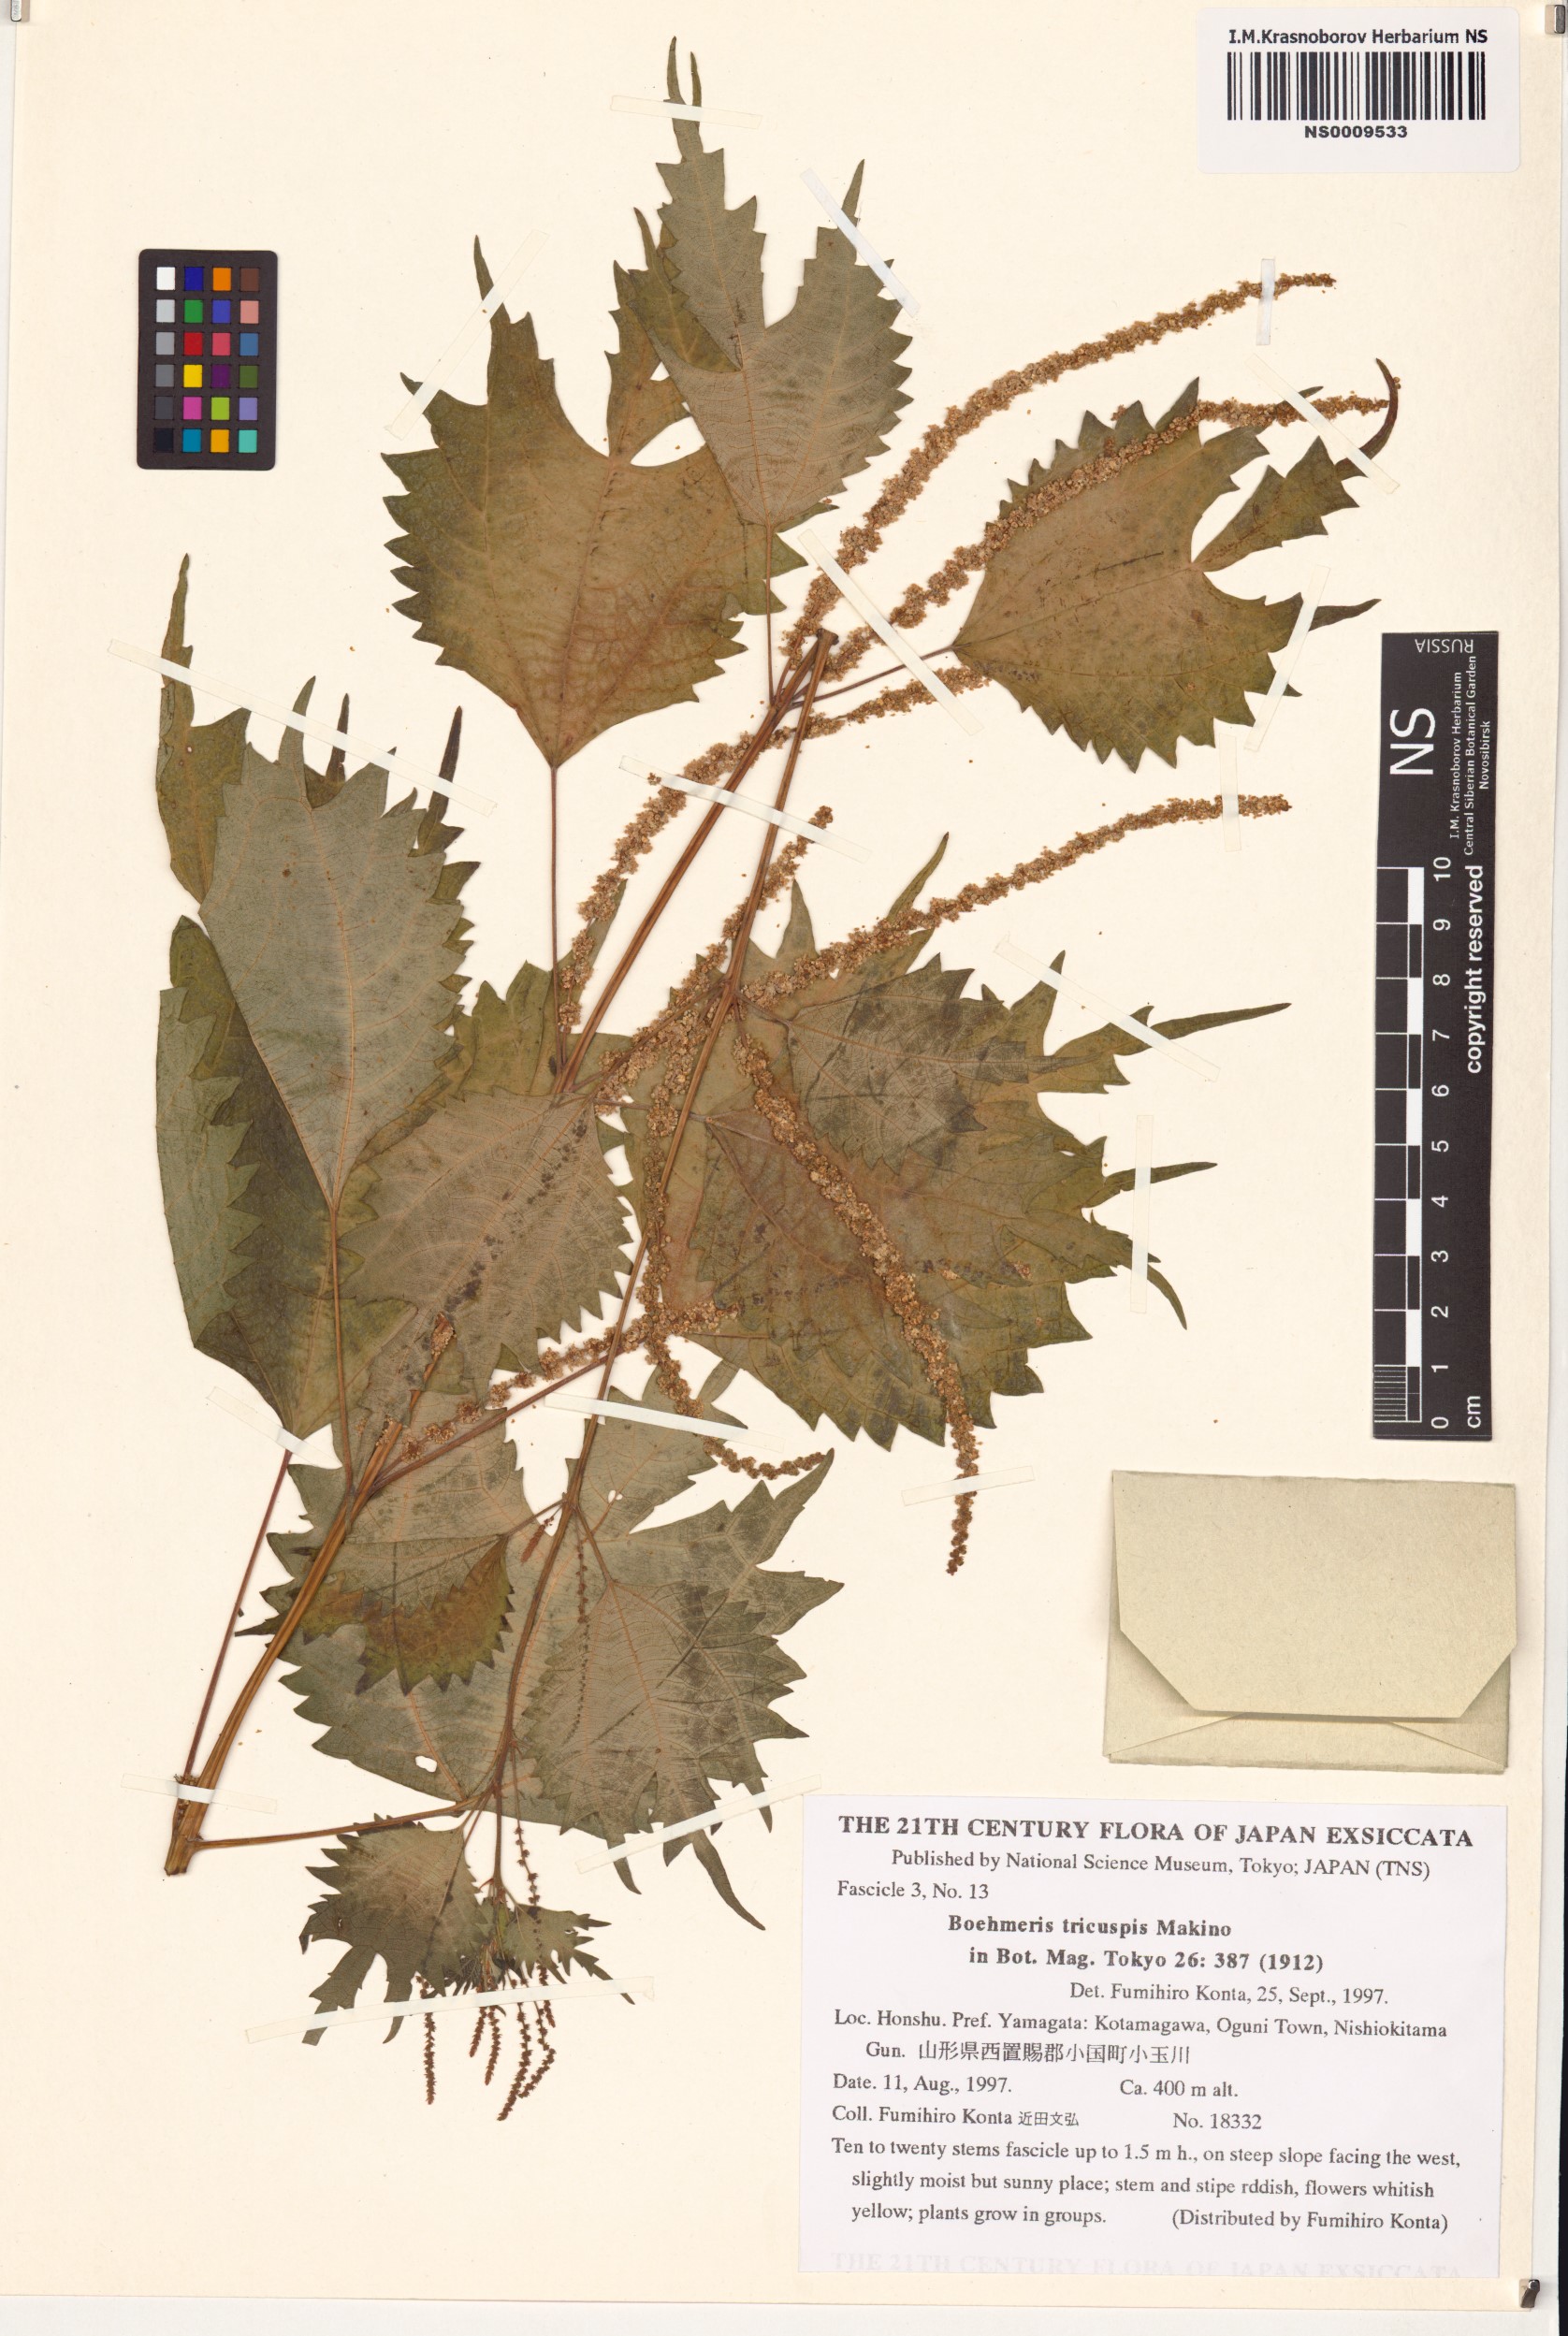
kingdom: Plantae
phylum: Tracheophyta
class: Magnoliopsida
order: Rosales
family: Urticaceae
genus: Boehmeria
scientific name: Boehmeria japonica
